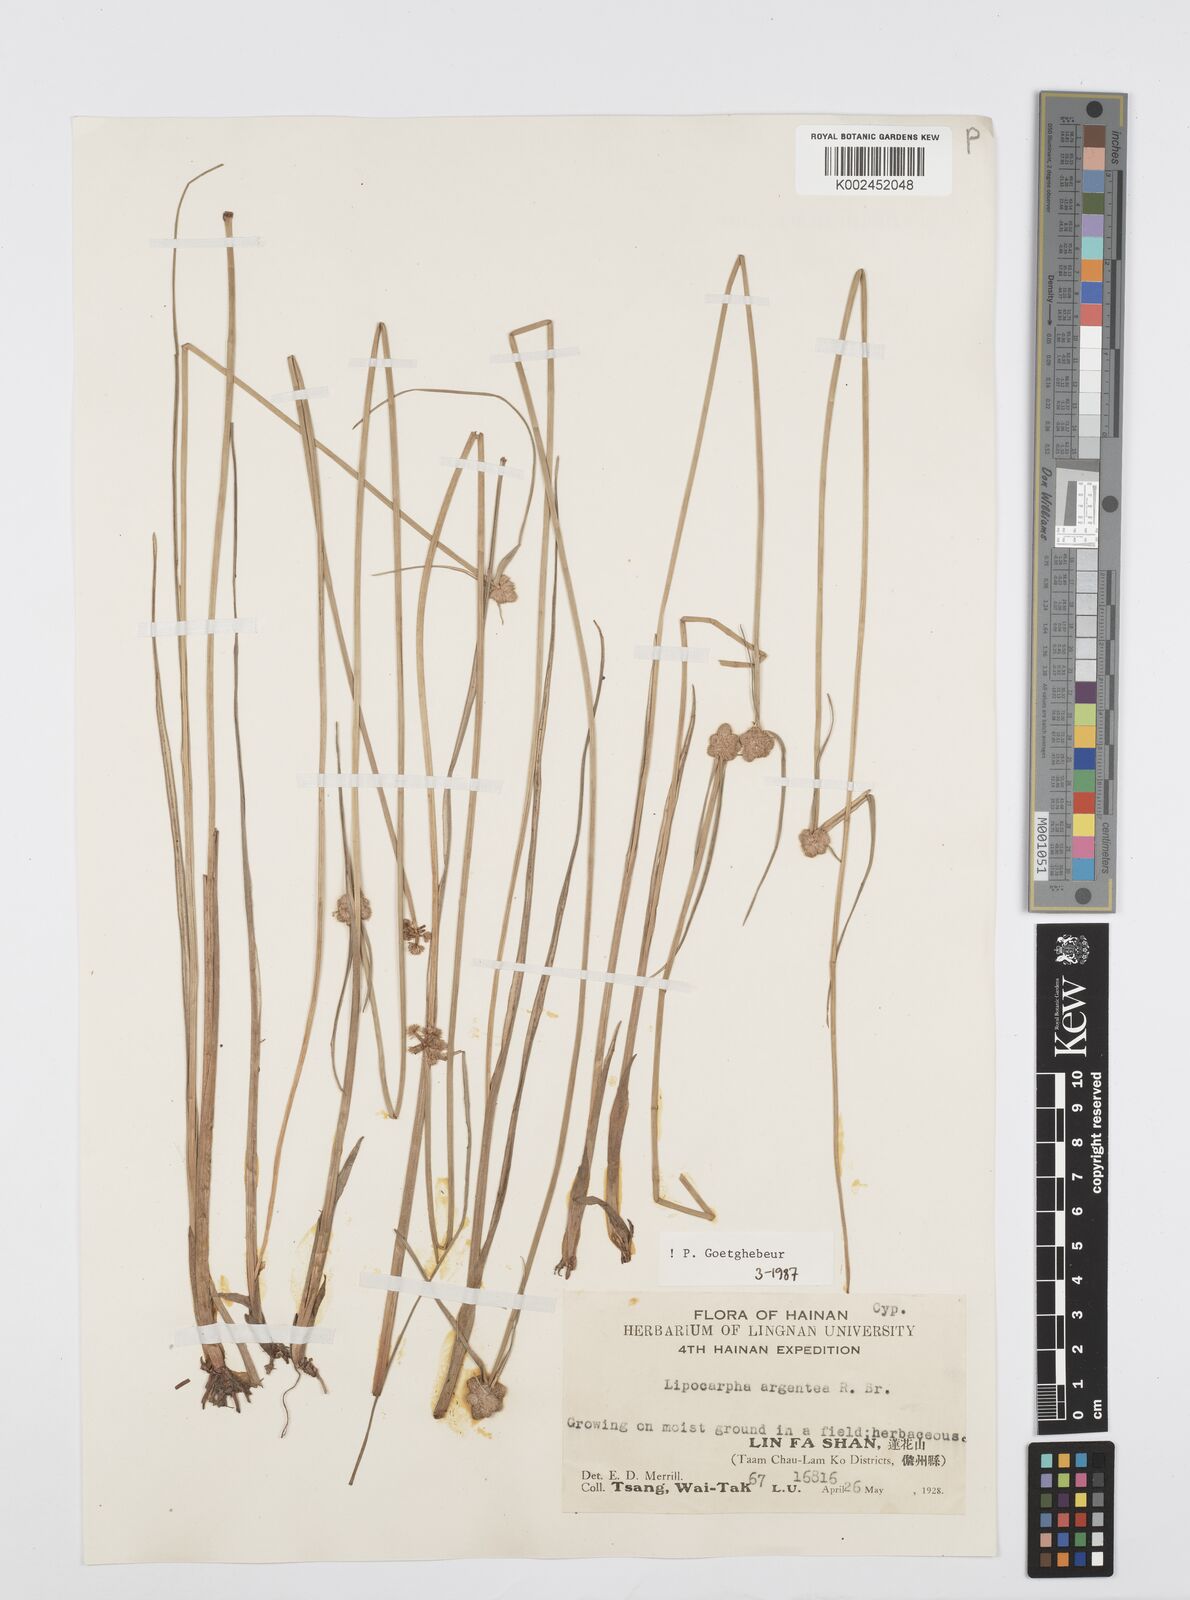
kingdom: Plantae
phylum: Tracheophyta
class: Liliopsida
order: Poales
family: Cyperaceae
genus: Cyperus
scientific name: Cyperus albescens
